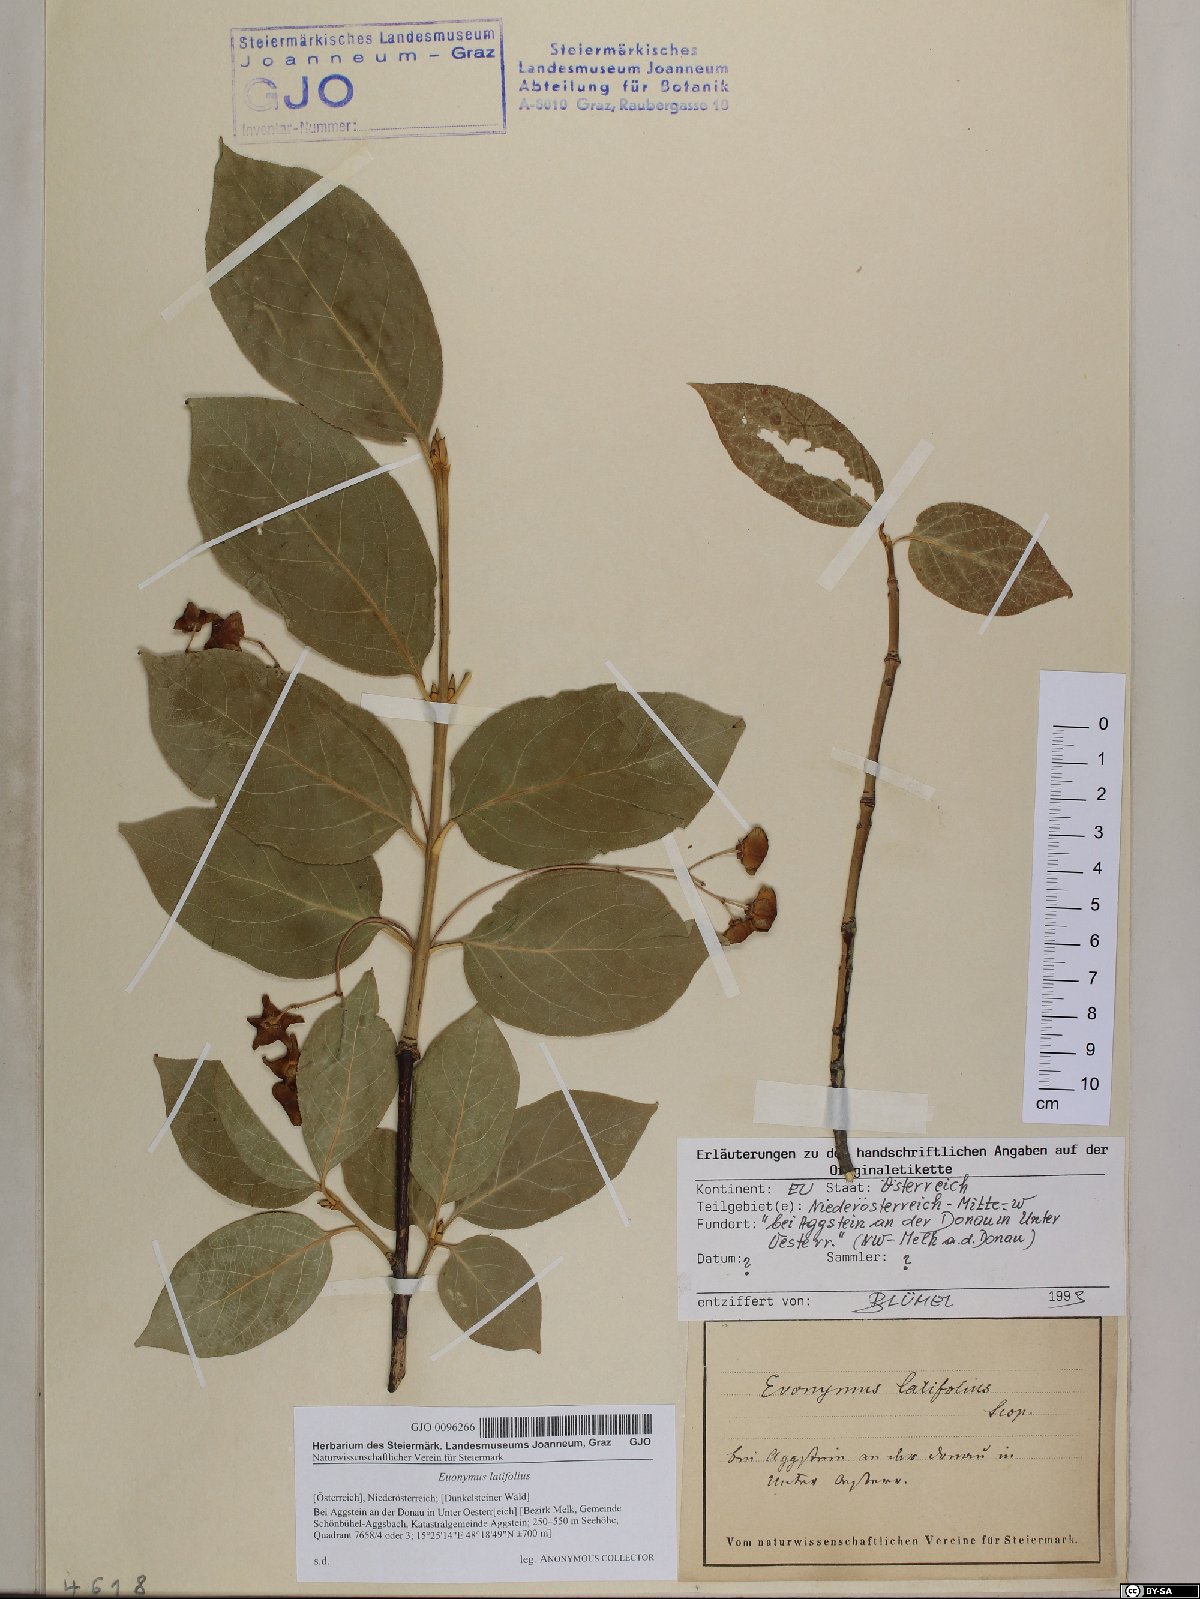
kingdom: Plantae
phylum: Tracheophyta
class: Magnoliopsida
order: Celastrales
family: Celastraceae
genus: Euonymus
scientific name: Euonymus latifolius
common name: Large-leaved spindle
